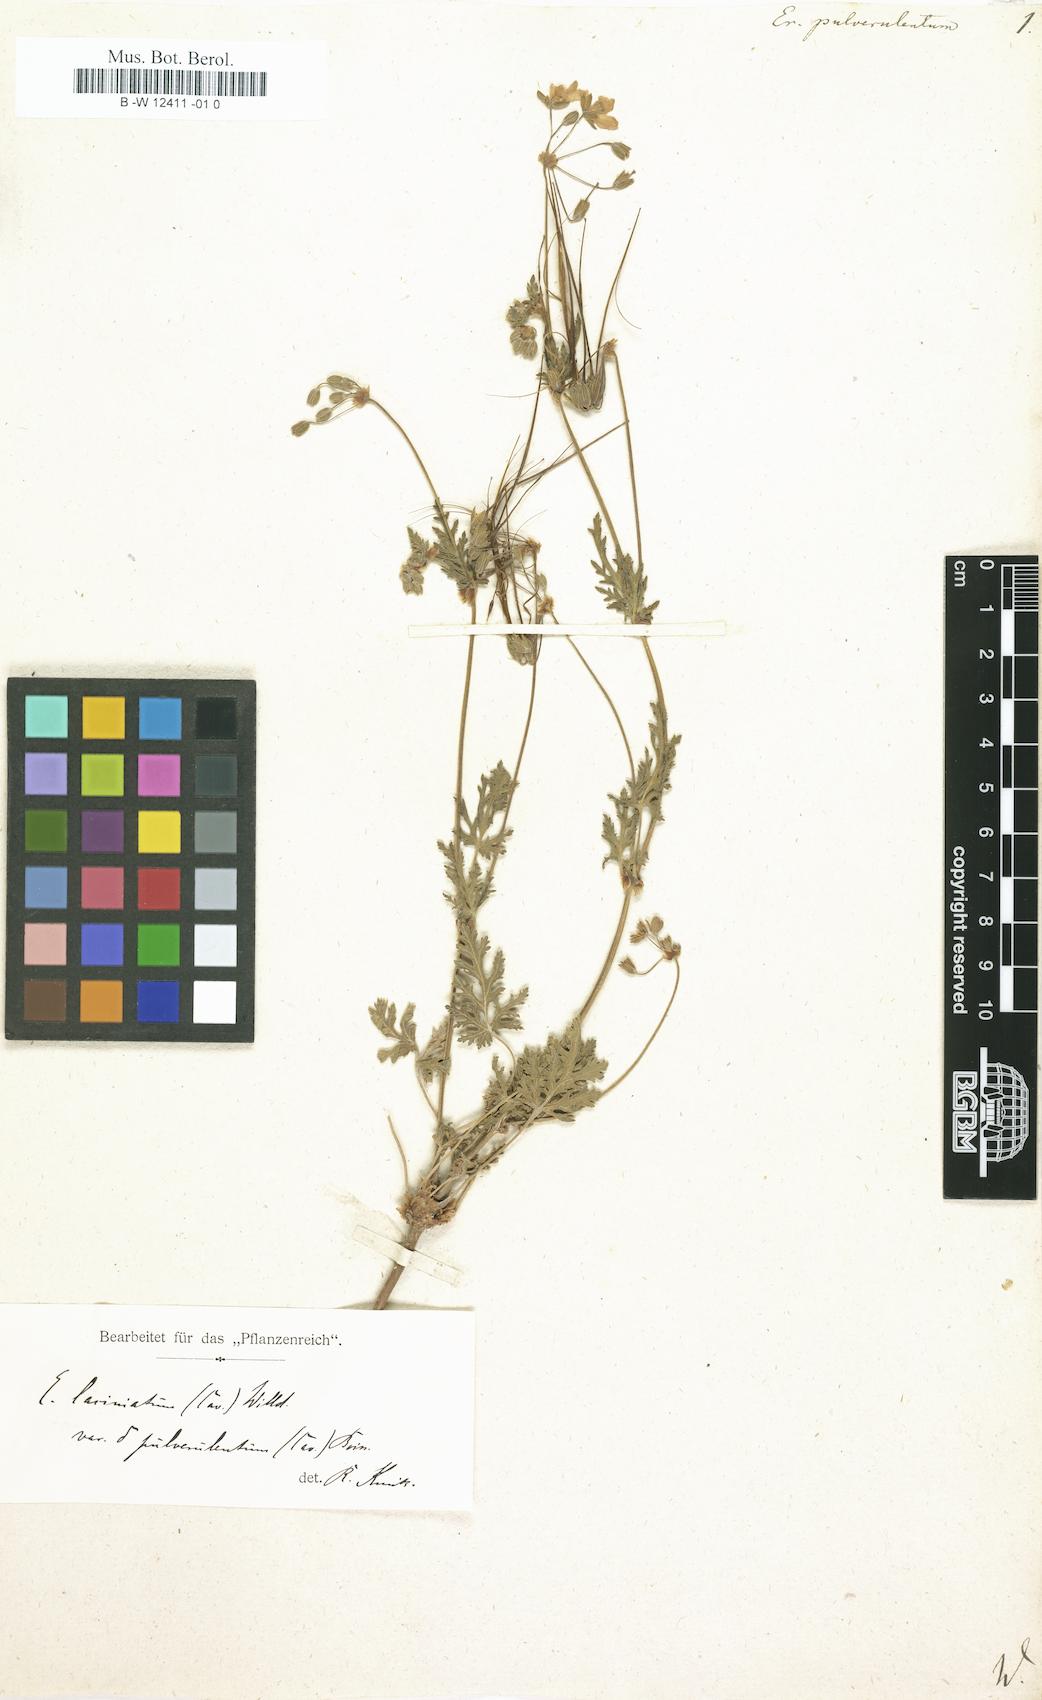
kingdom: Plantae
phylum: Tracheophyta
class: Magnoliopsida
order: Geraniales
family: Geraniaceae
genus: Erodium
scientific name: Erodium laciniatum
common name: Cutleaf stork's bill
